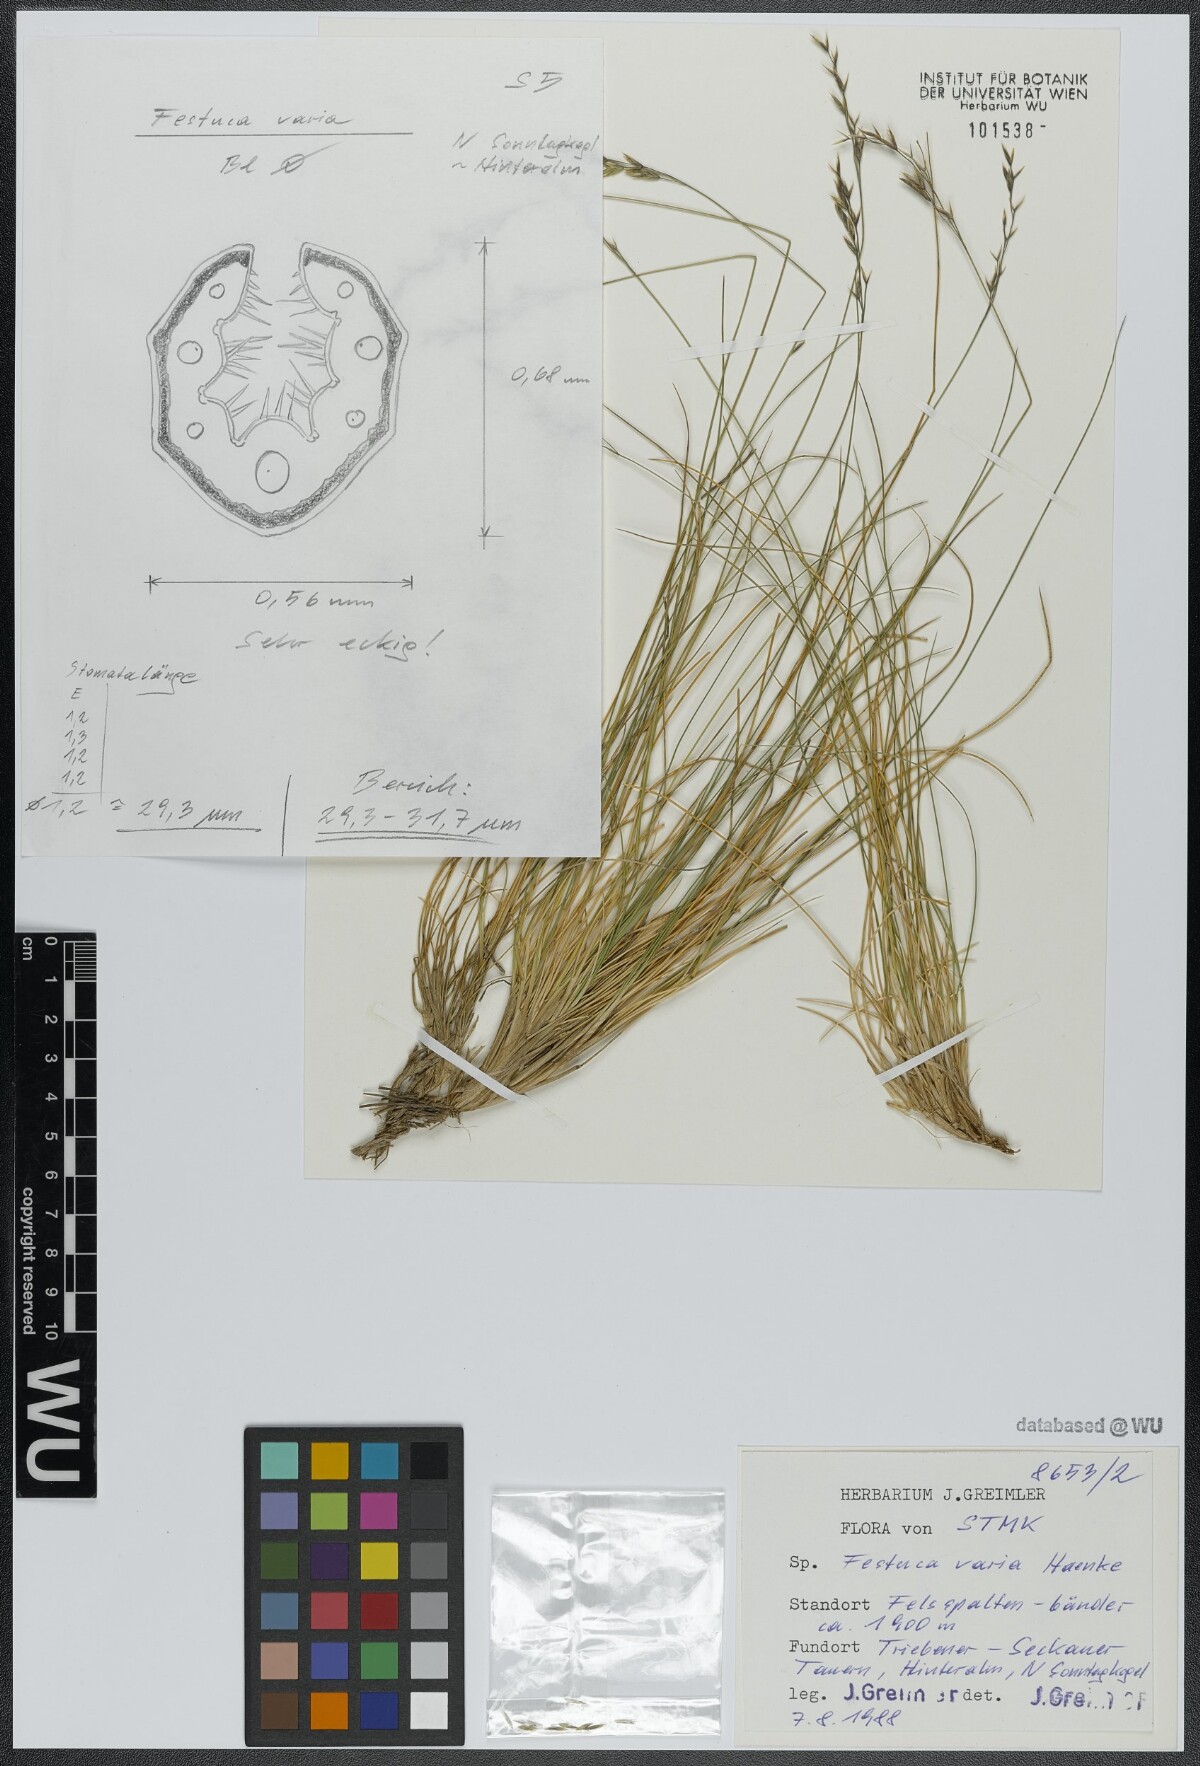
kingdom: Plantae
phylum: Tracheophyta
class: Liliopsida
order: Poales
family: Poaceae
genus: Festuca
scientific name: Festuca varia
